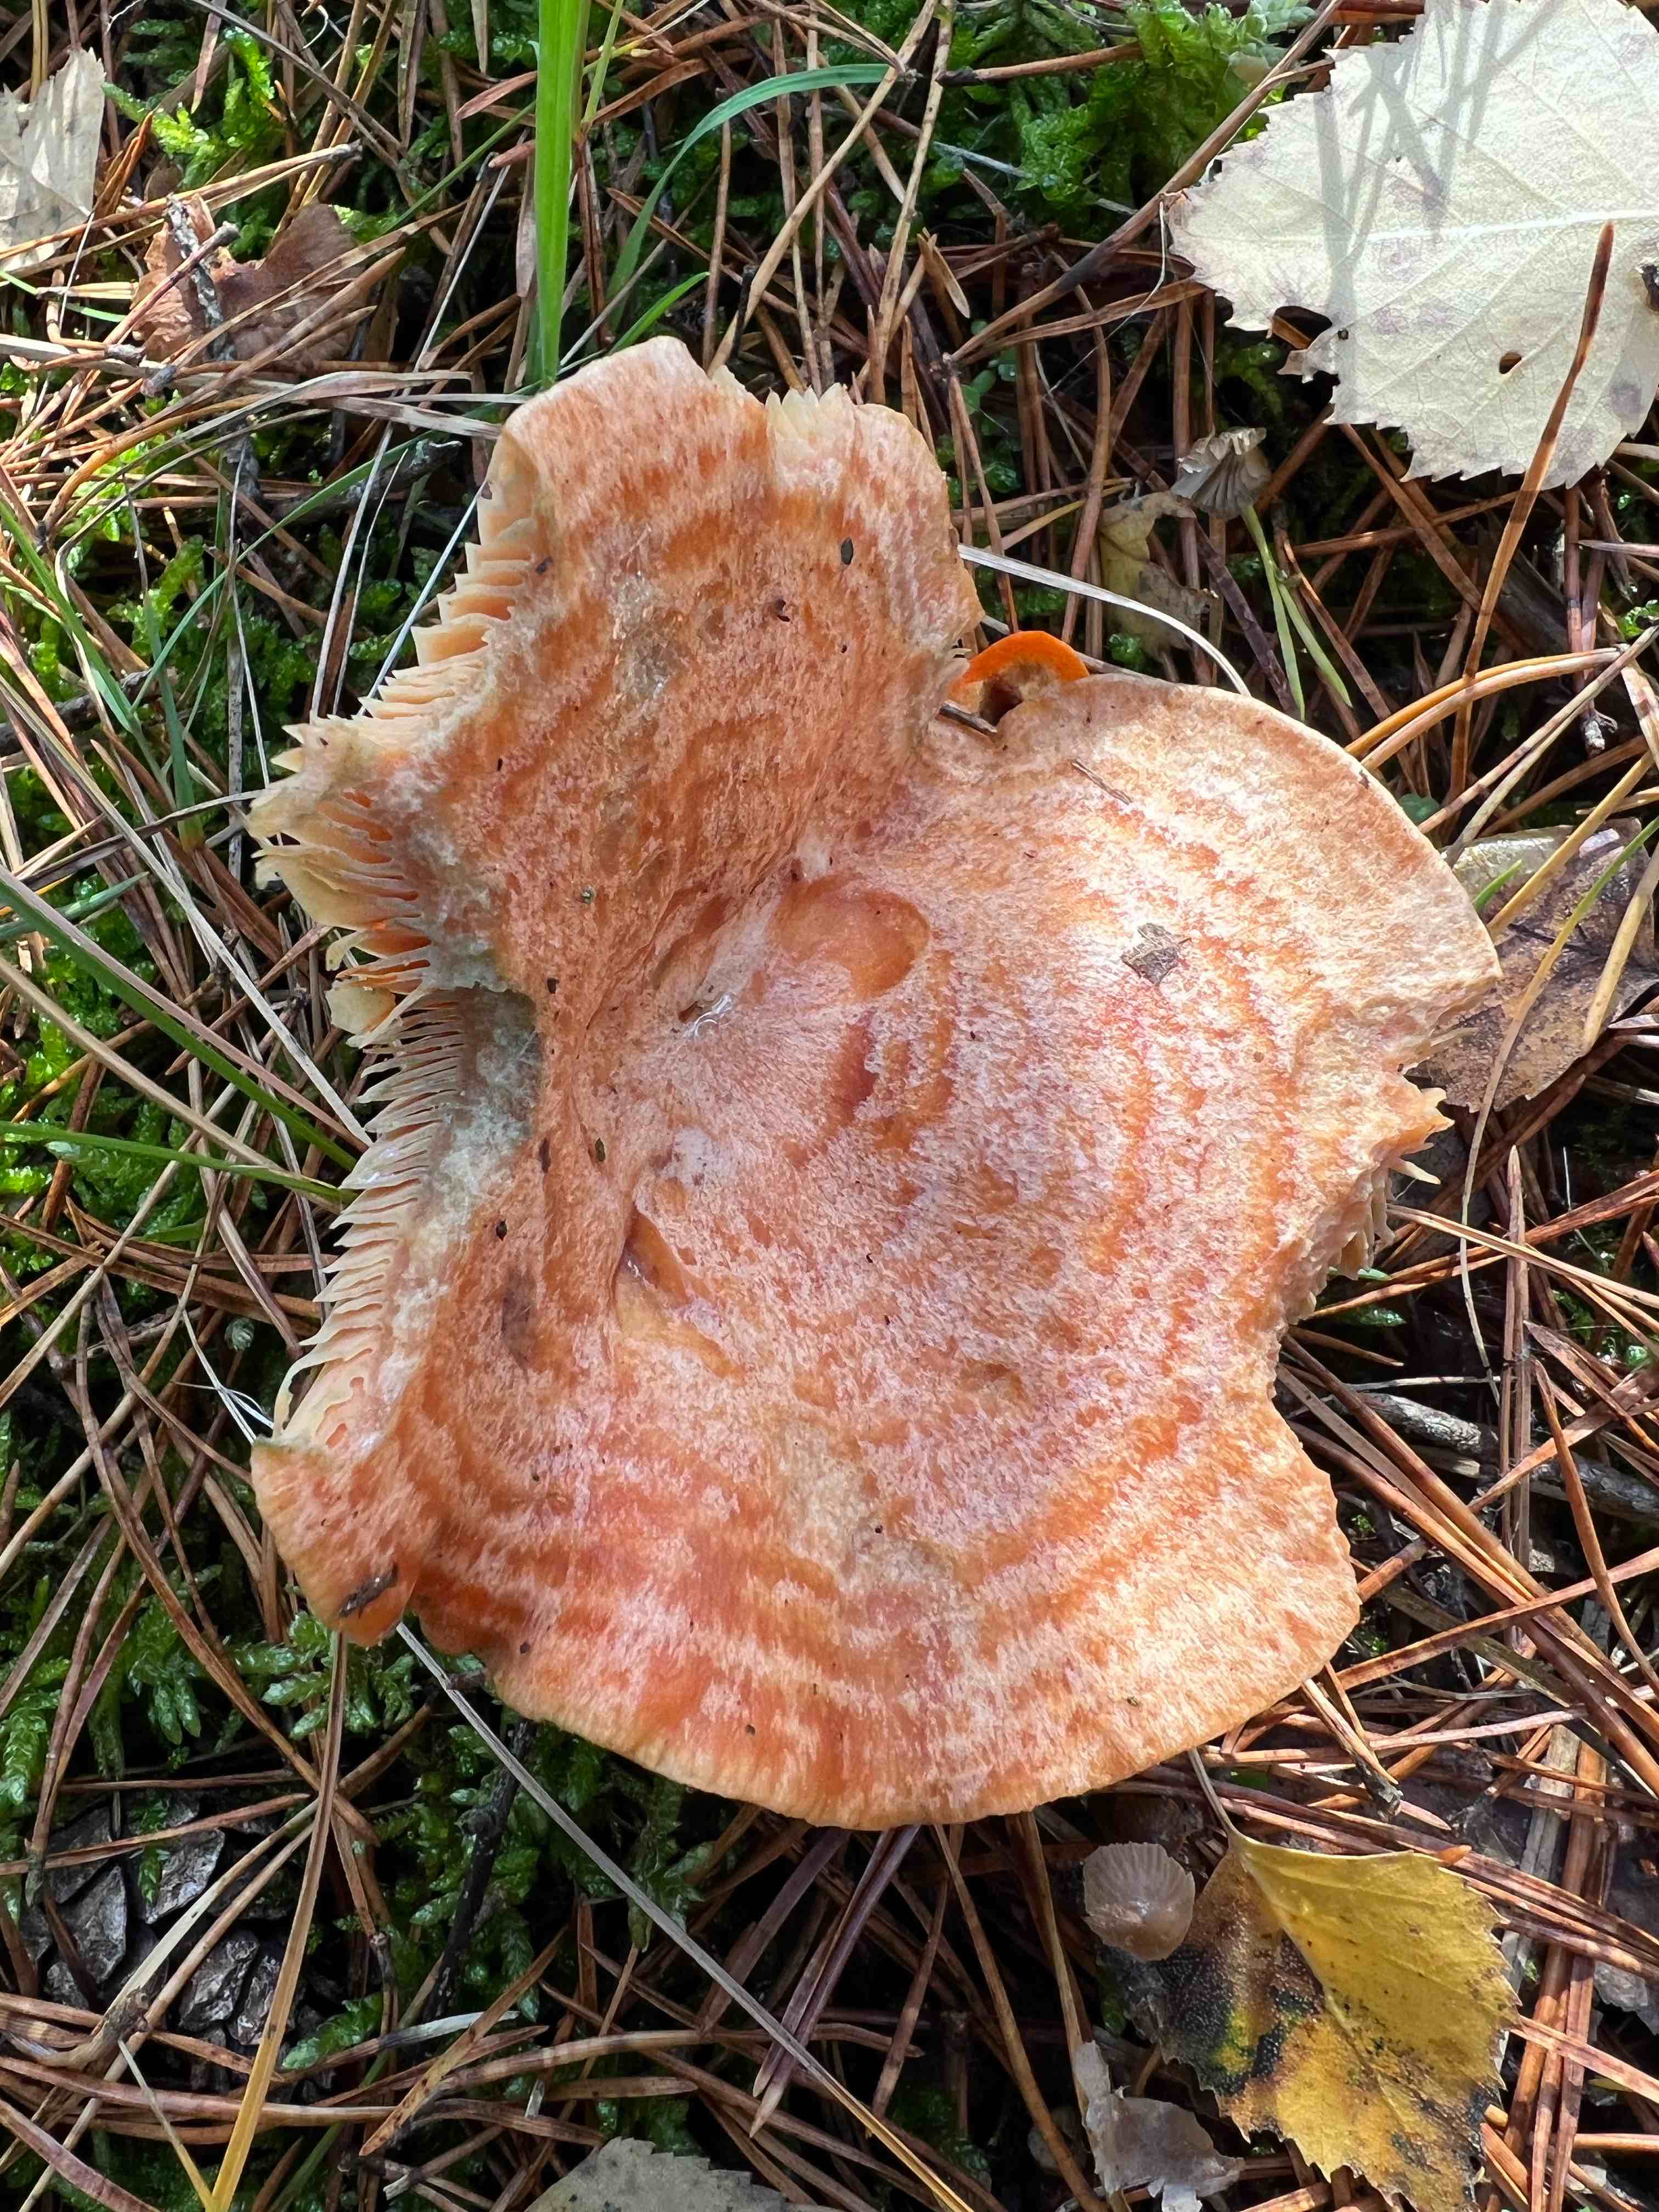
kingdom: Fungi
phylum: Basidiomycota
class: Agaricomycetes
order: Russulales
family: Russulaceae
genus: Lactarius
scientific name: Lactarius deliciosus
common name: velsmagende mælkehat
